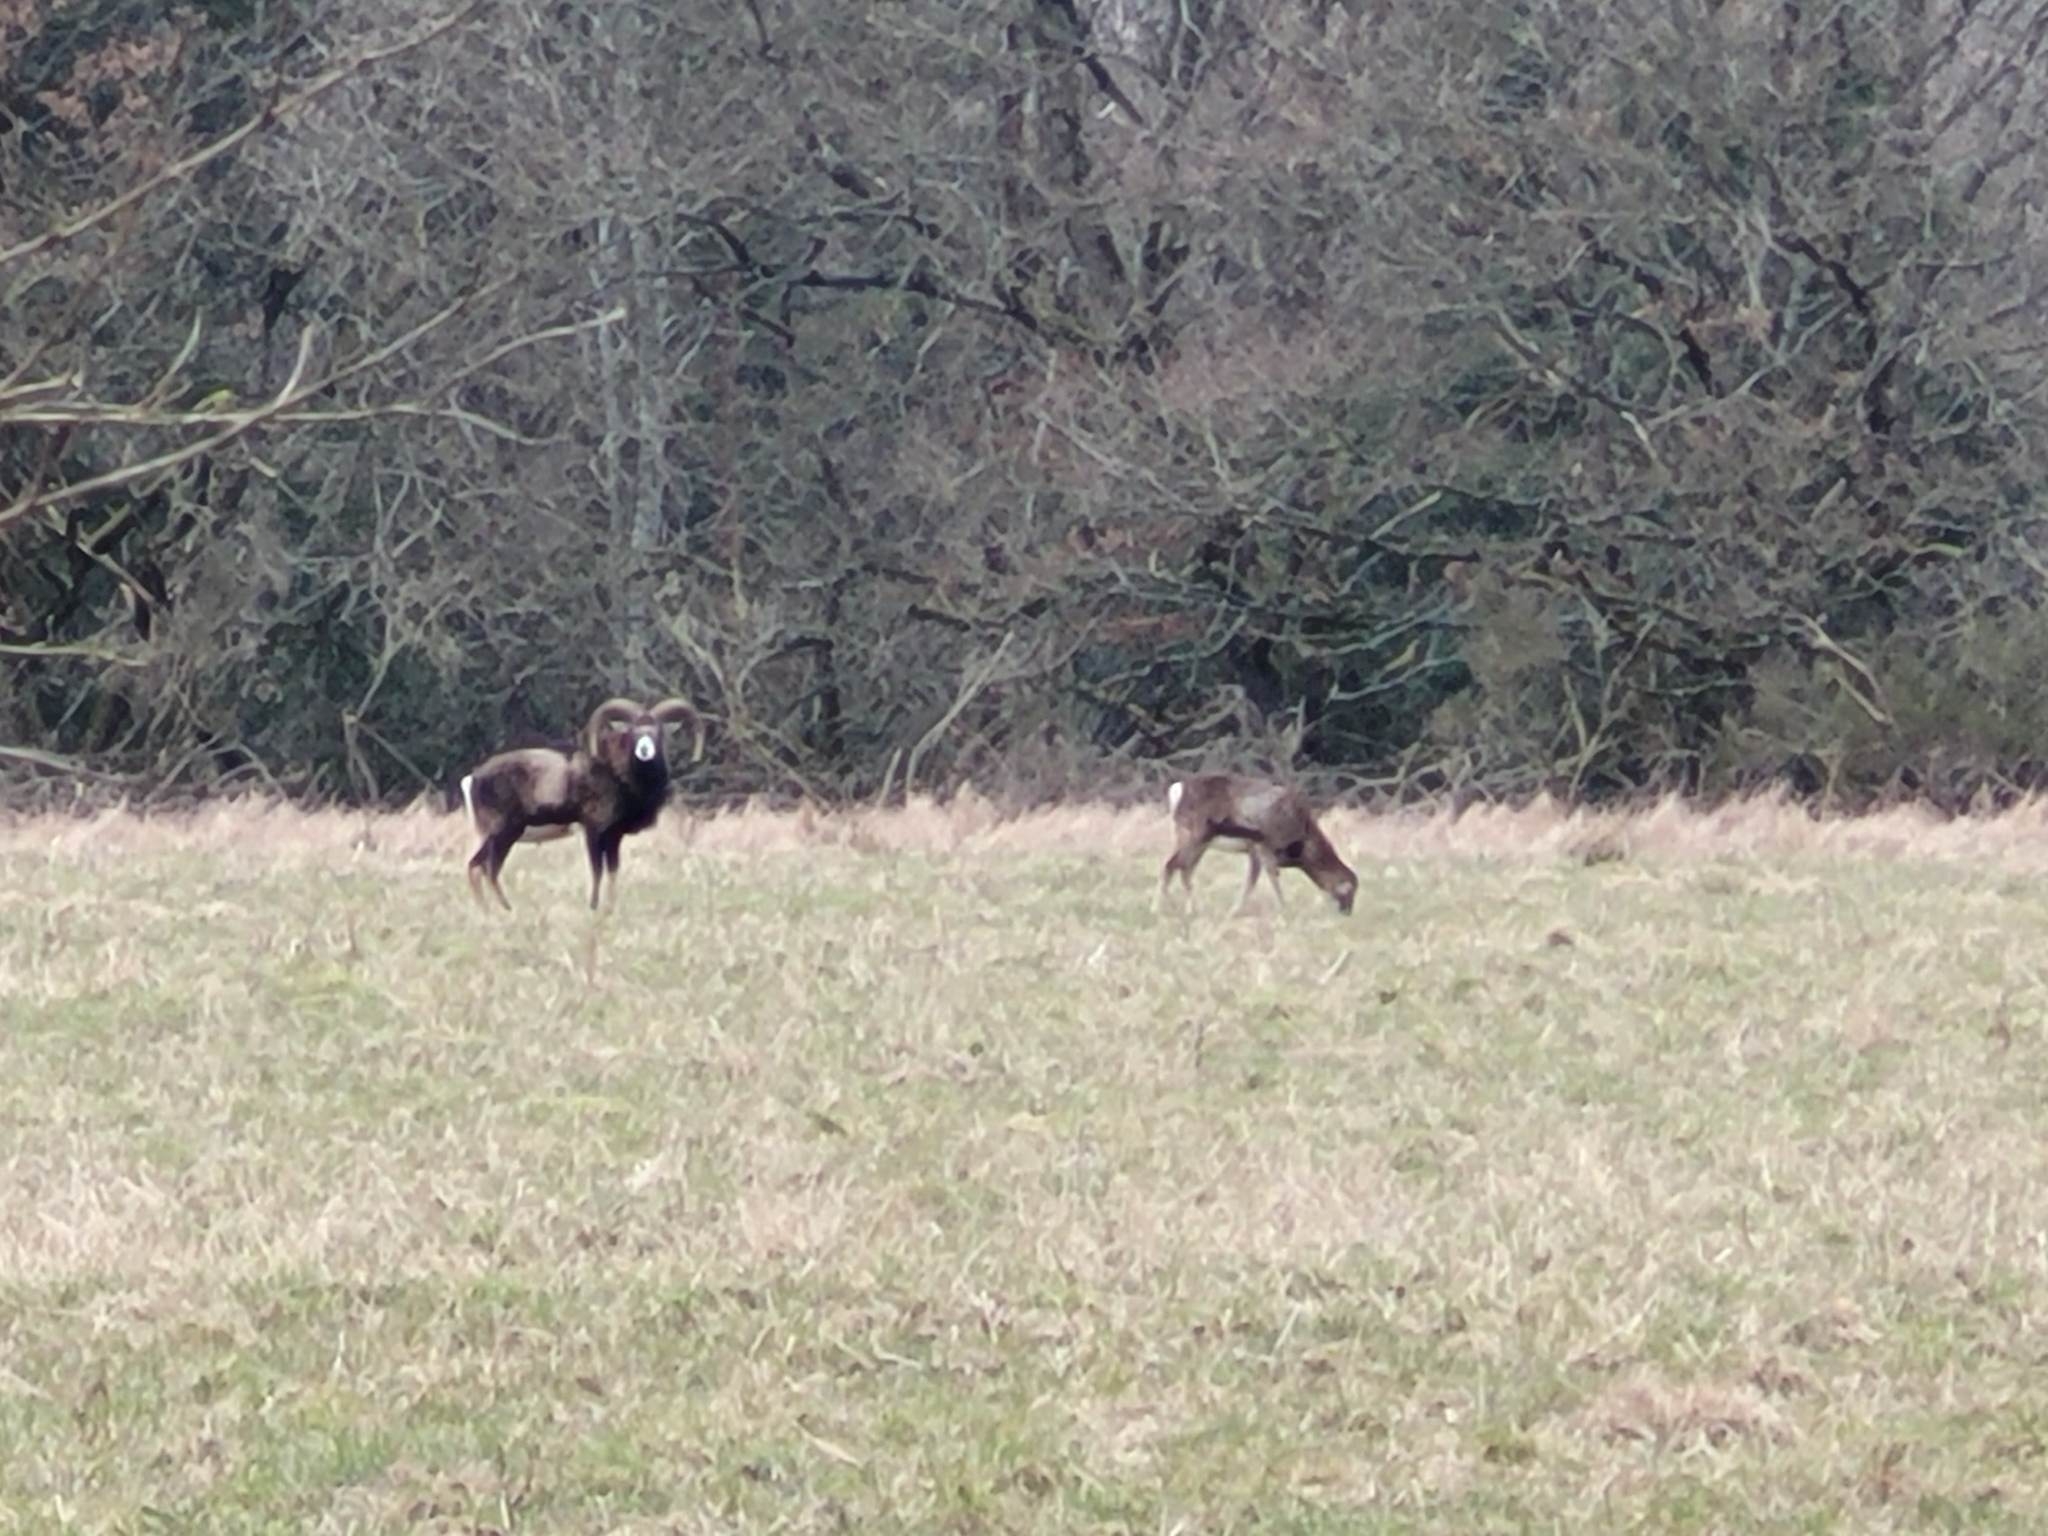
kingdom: Animalia
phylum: Chordata
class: Mammalia
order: Artiodactyla
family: Bovidae
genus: Ovis
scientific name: Ovis aries
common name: Muflon
